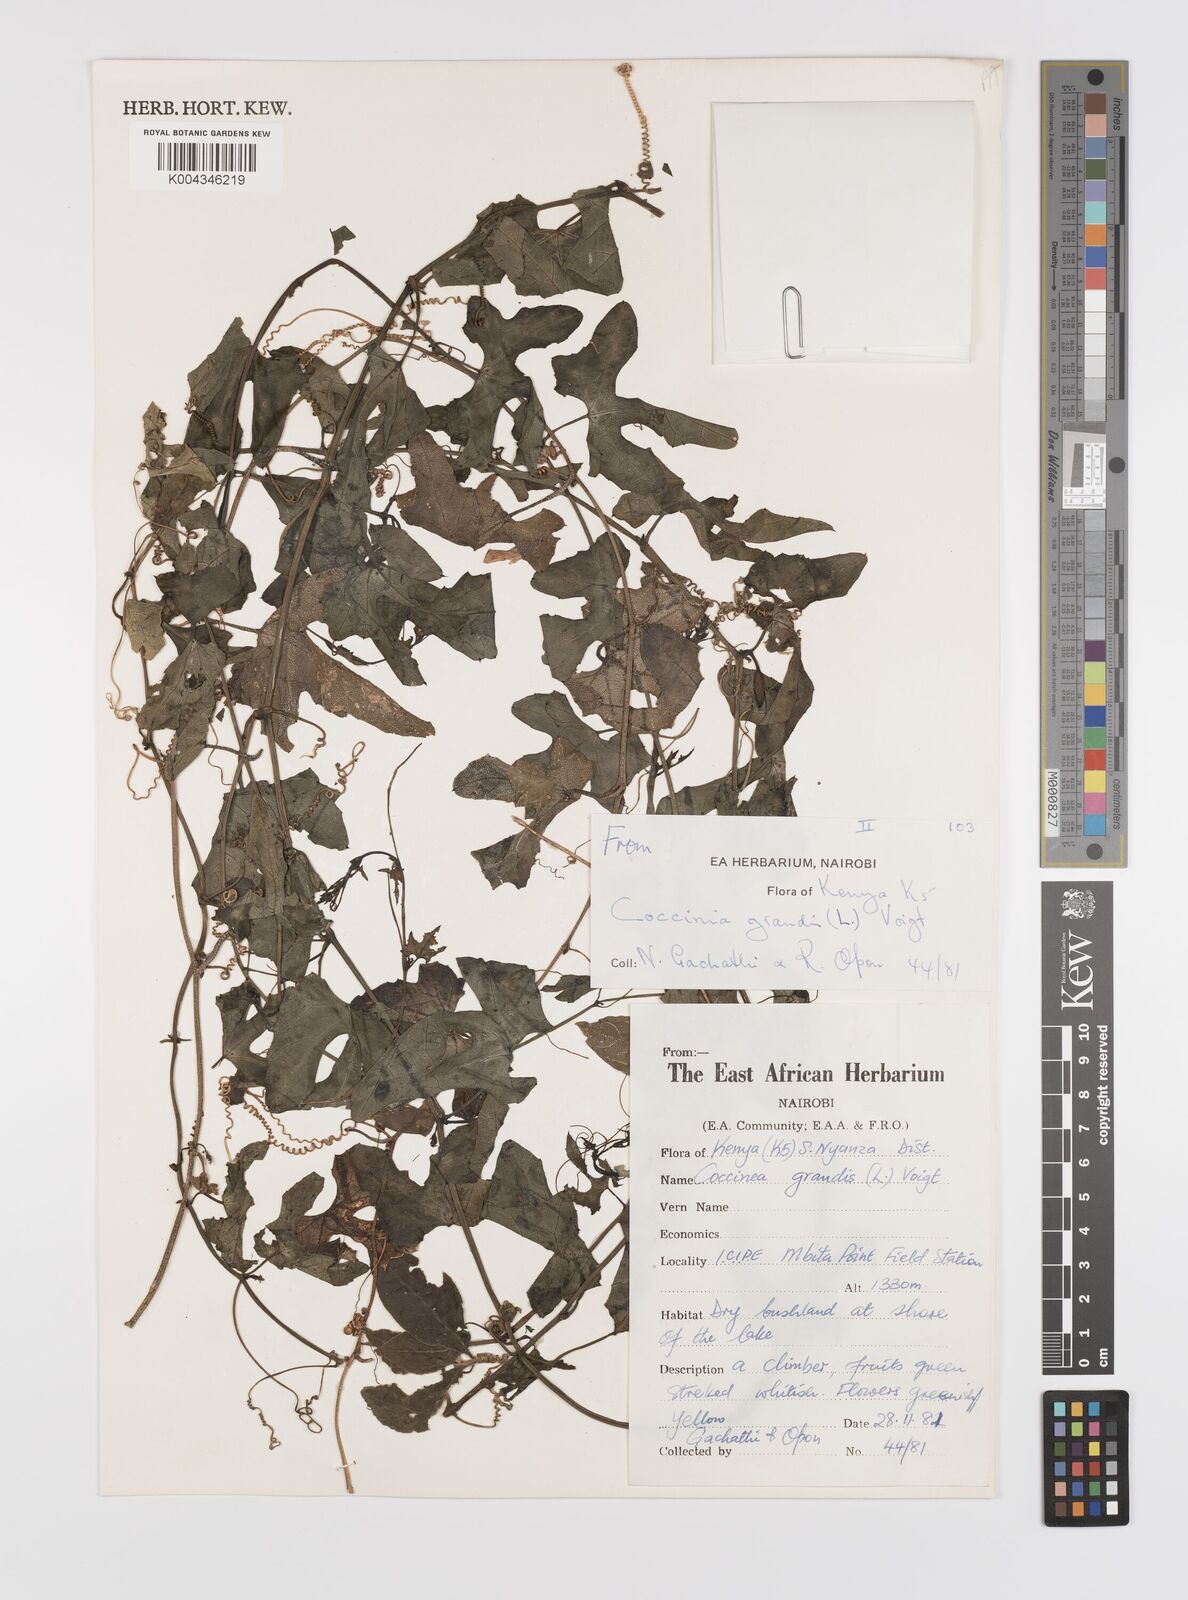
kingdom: Plantae
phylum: Tracheophyta
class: Magnoliopsida
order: Cucurbitales
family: Cucurbitaceae
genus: Coccinia
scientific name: Coccinia grandis
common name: Ivy gourd
